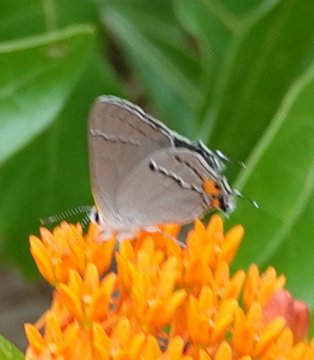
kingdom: Animalia
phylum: Arthropoda
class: Insecta
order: Lepidoptera
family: Lycaenidae
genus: Strymon
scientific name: Strymon melinus
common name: Gray Hairstreak
